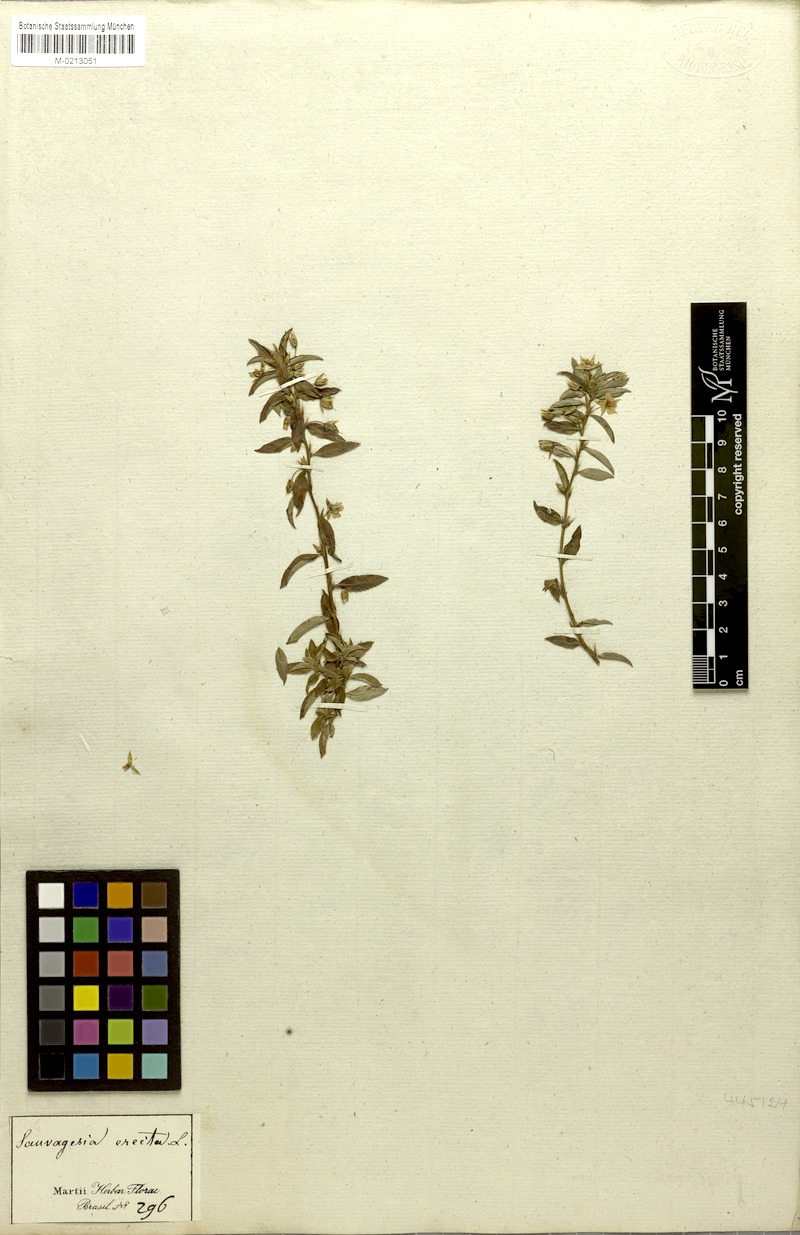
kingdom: Plantae
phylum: Tracheophyta
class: Magnoliopsida
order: Malpighiales
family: Ochnaceae
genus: Sauvagesia
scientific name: Sauvagesia erecta
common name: Creole tea
